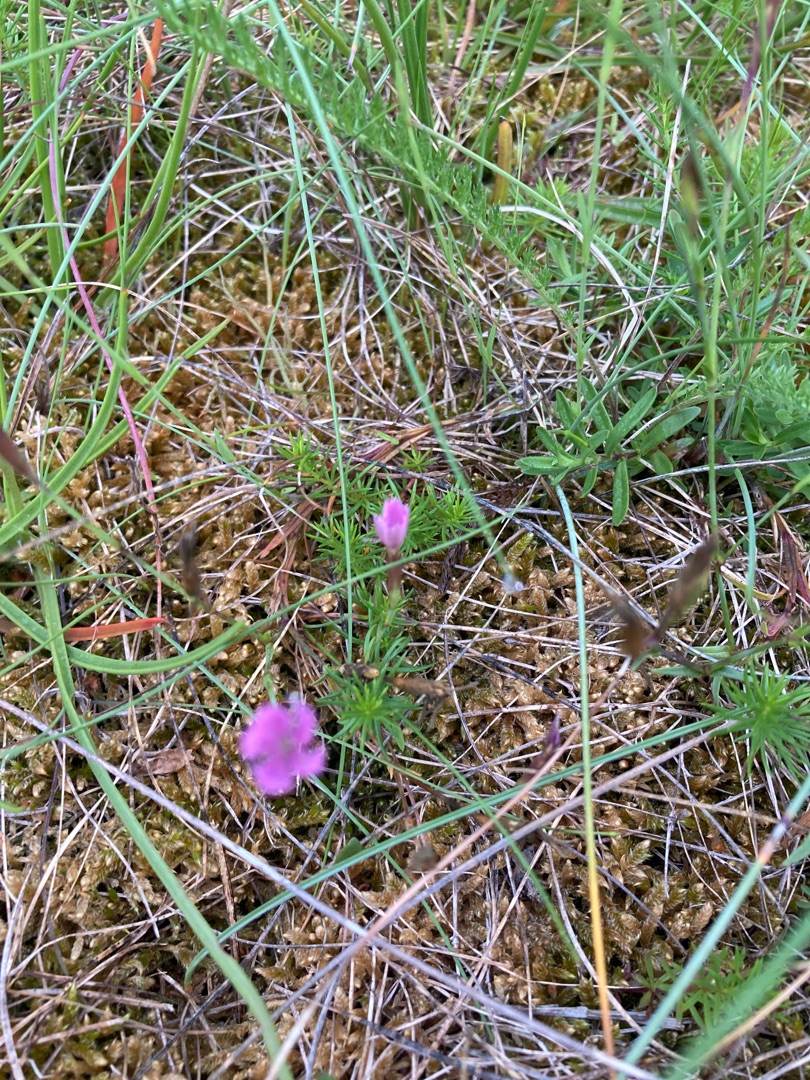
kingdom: Plantae
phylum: Tracheophyta
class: Magnoliopsida
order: Caryophyllales
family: Caryophyllaceae
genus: Dianthus
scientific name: Dianthus deltoides
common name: Bakke-nellike
